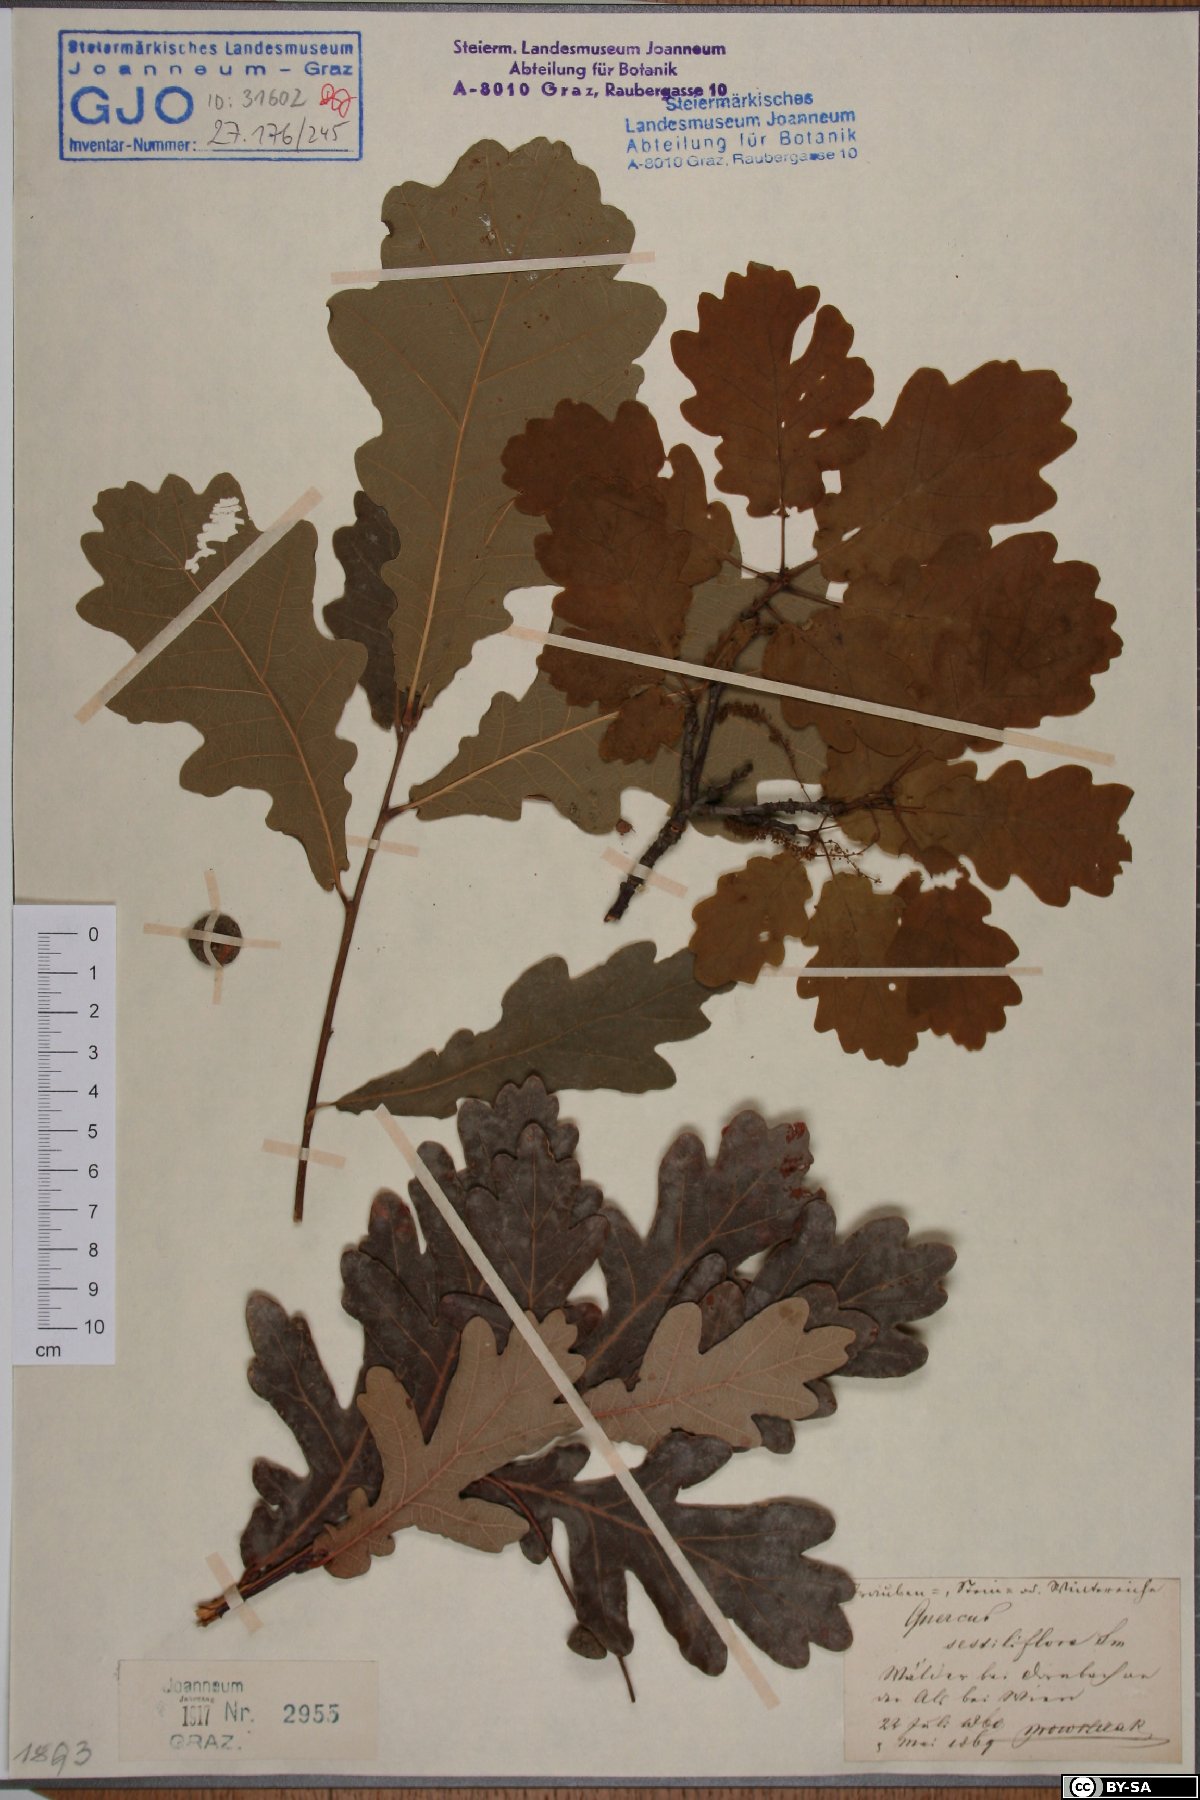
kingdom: Plantae
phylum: Tracheophyta
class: Magnoliopsida
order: Fagales
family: Fagaceae
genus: Quercus
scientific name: Quercus petraea
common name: Sessile oak
